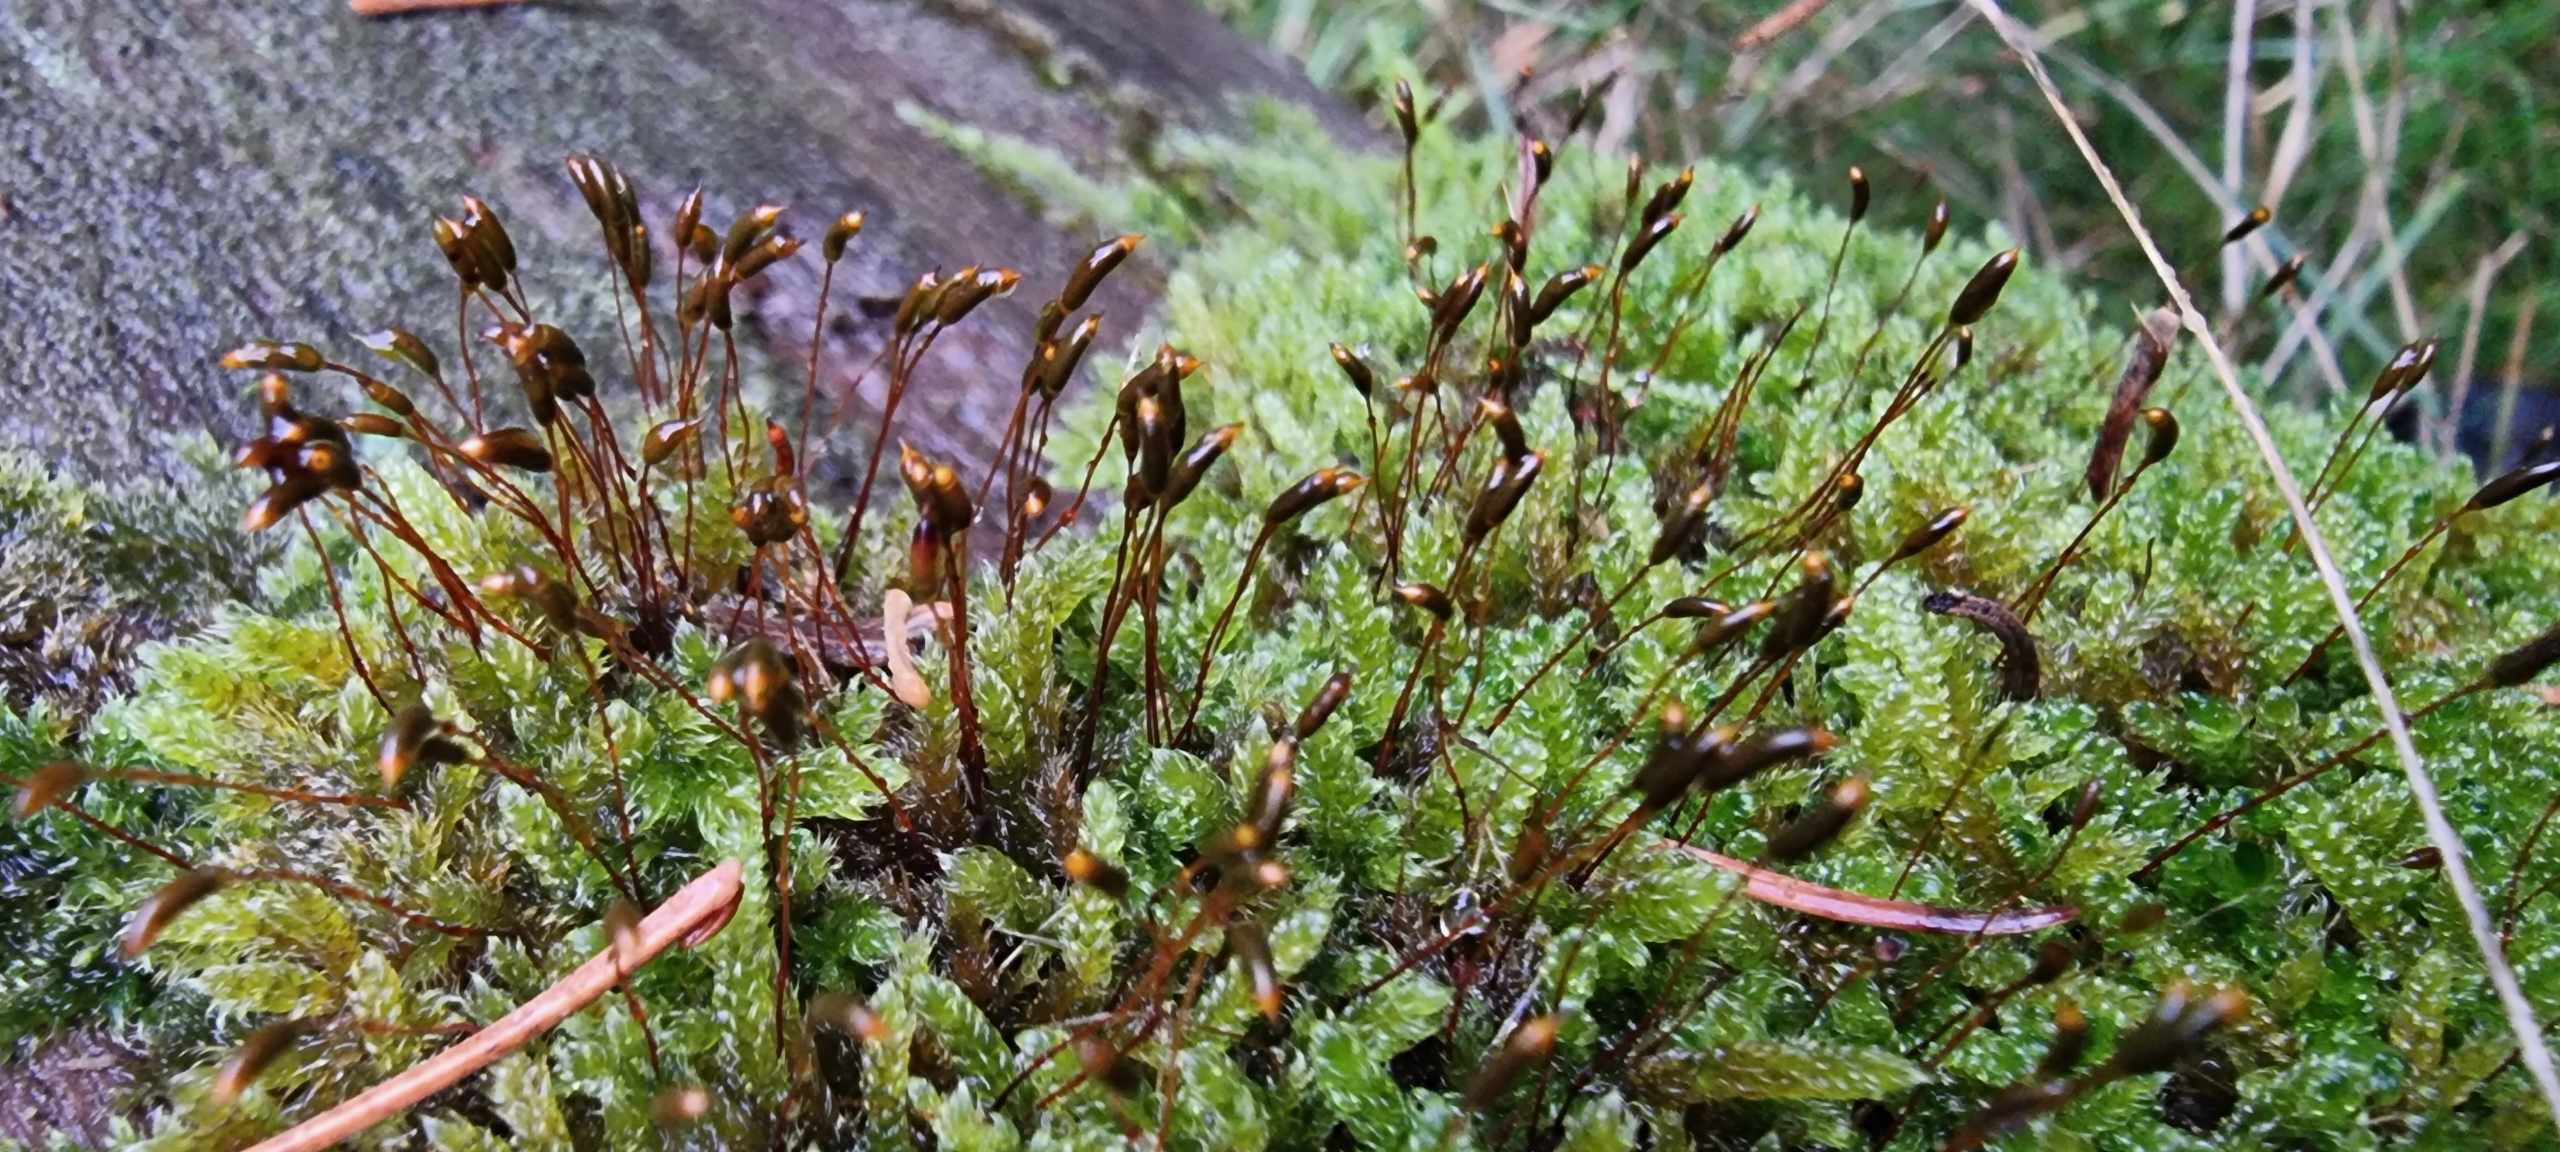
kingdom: Plantae
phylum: Bryophyta
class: Bryopsida
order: Hypnales
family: Hypnaceae
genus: Hypnum
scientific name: Hypnum cupressiforme
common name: Almindelig cypresmos
